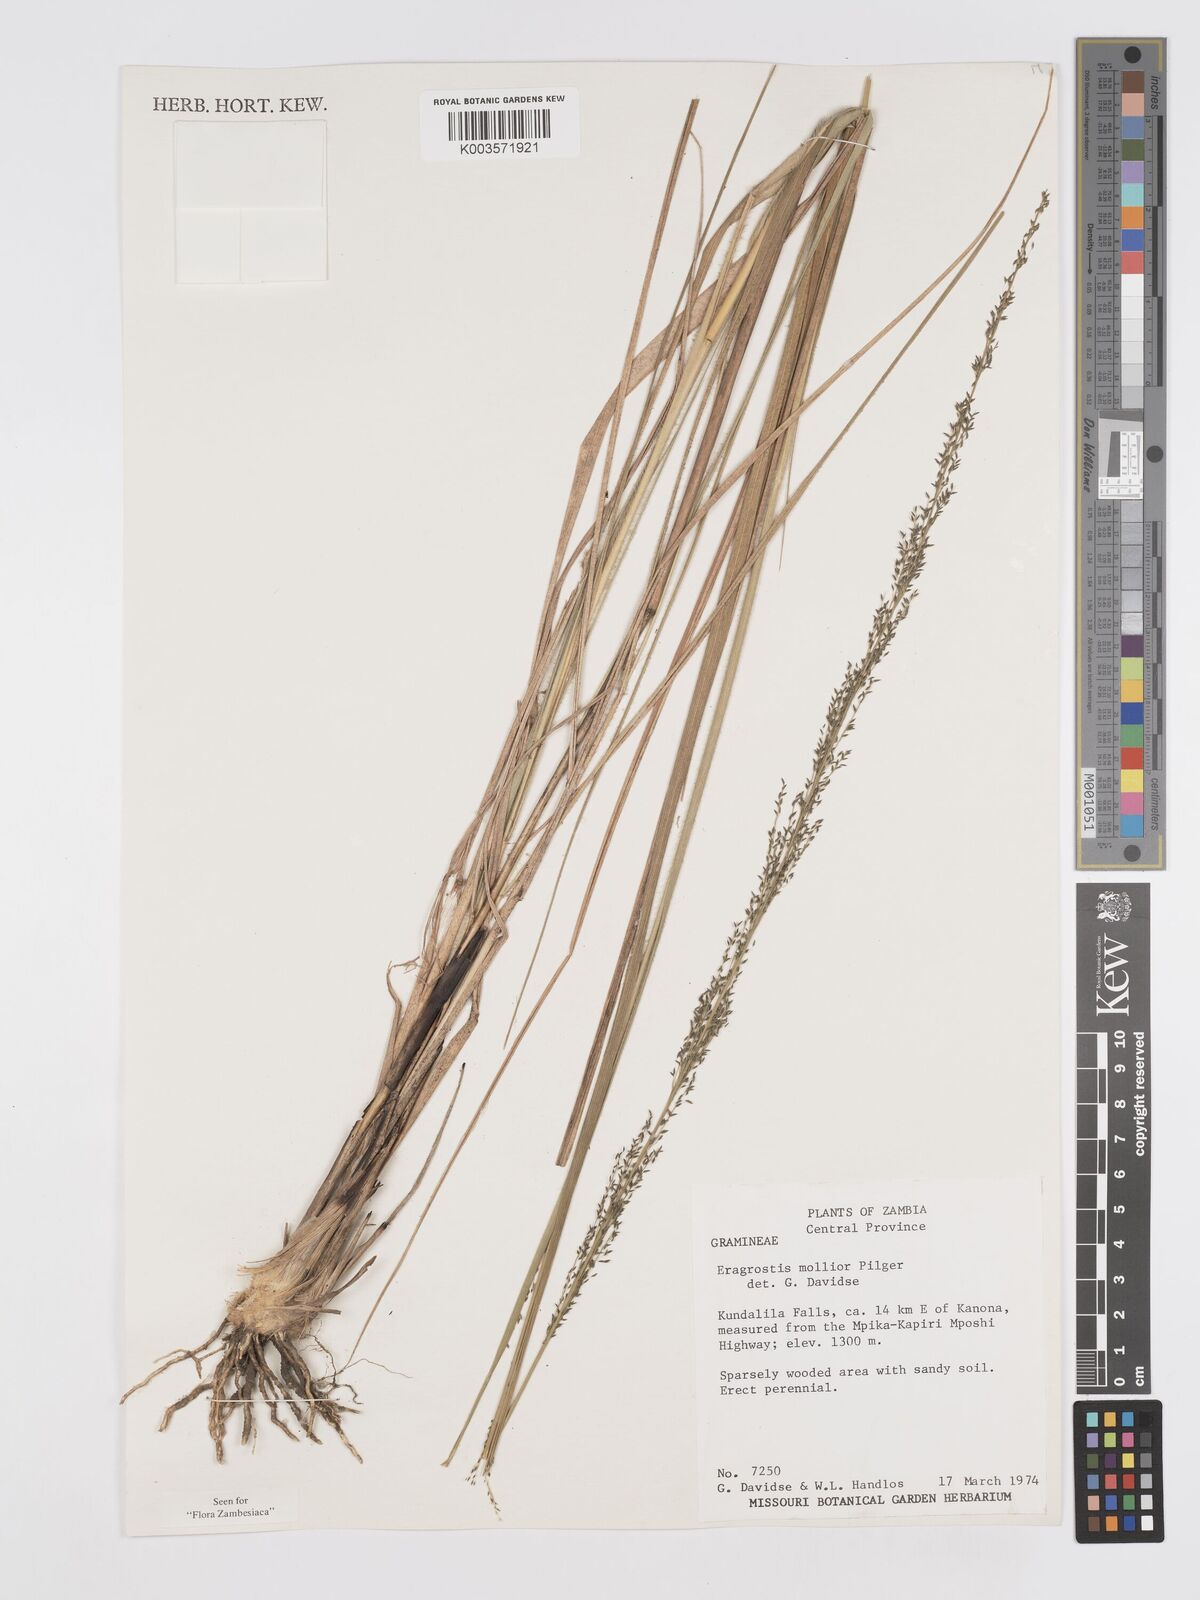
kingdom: Plantae
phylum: Tracheophyta
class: Liliopsida
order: Poales
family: Poaceae
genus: Eragrostis
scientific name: Eragrostis mollior
